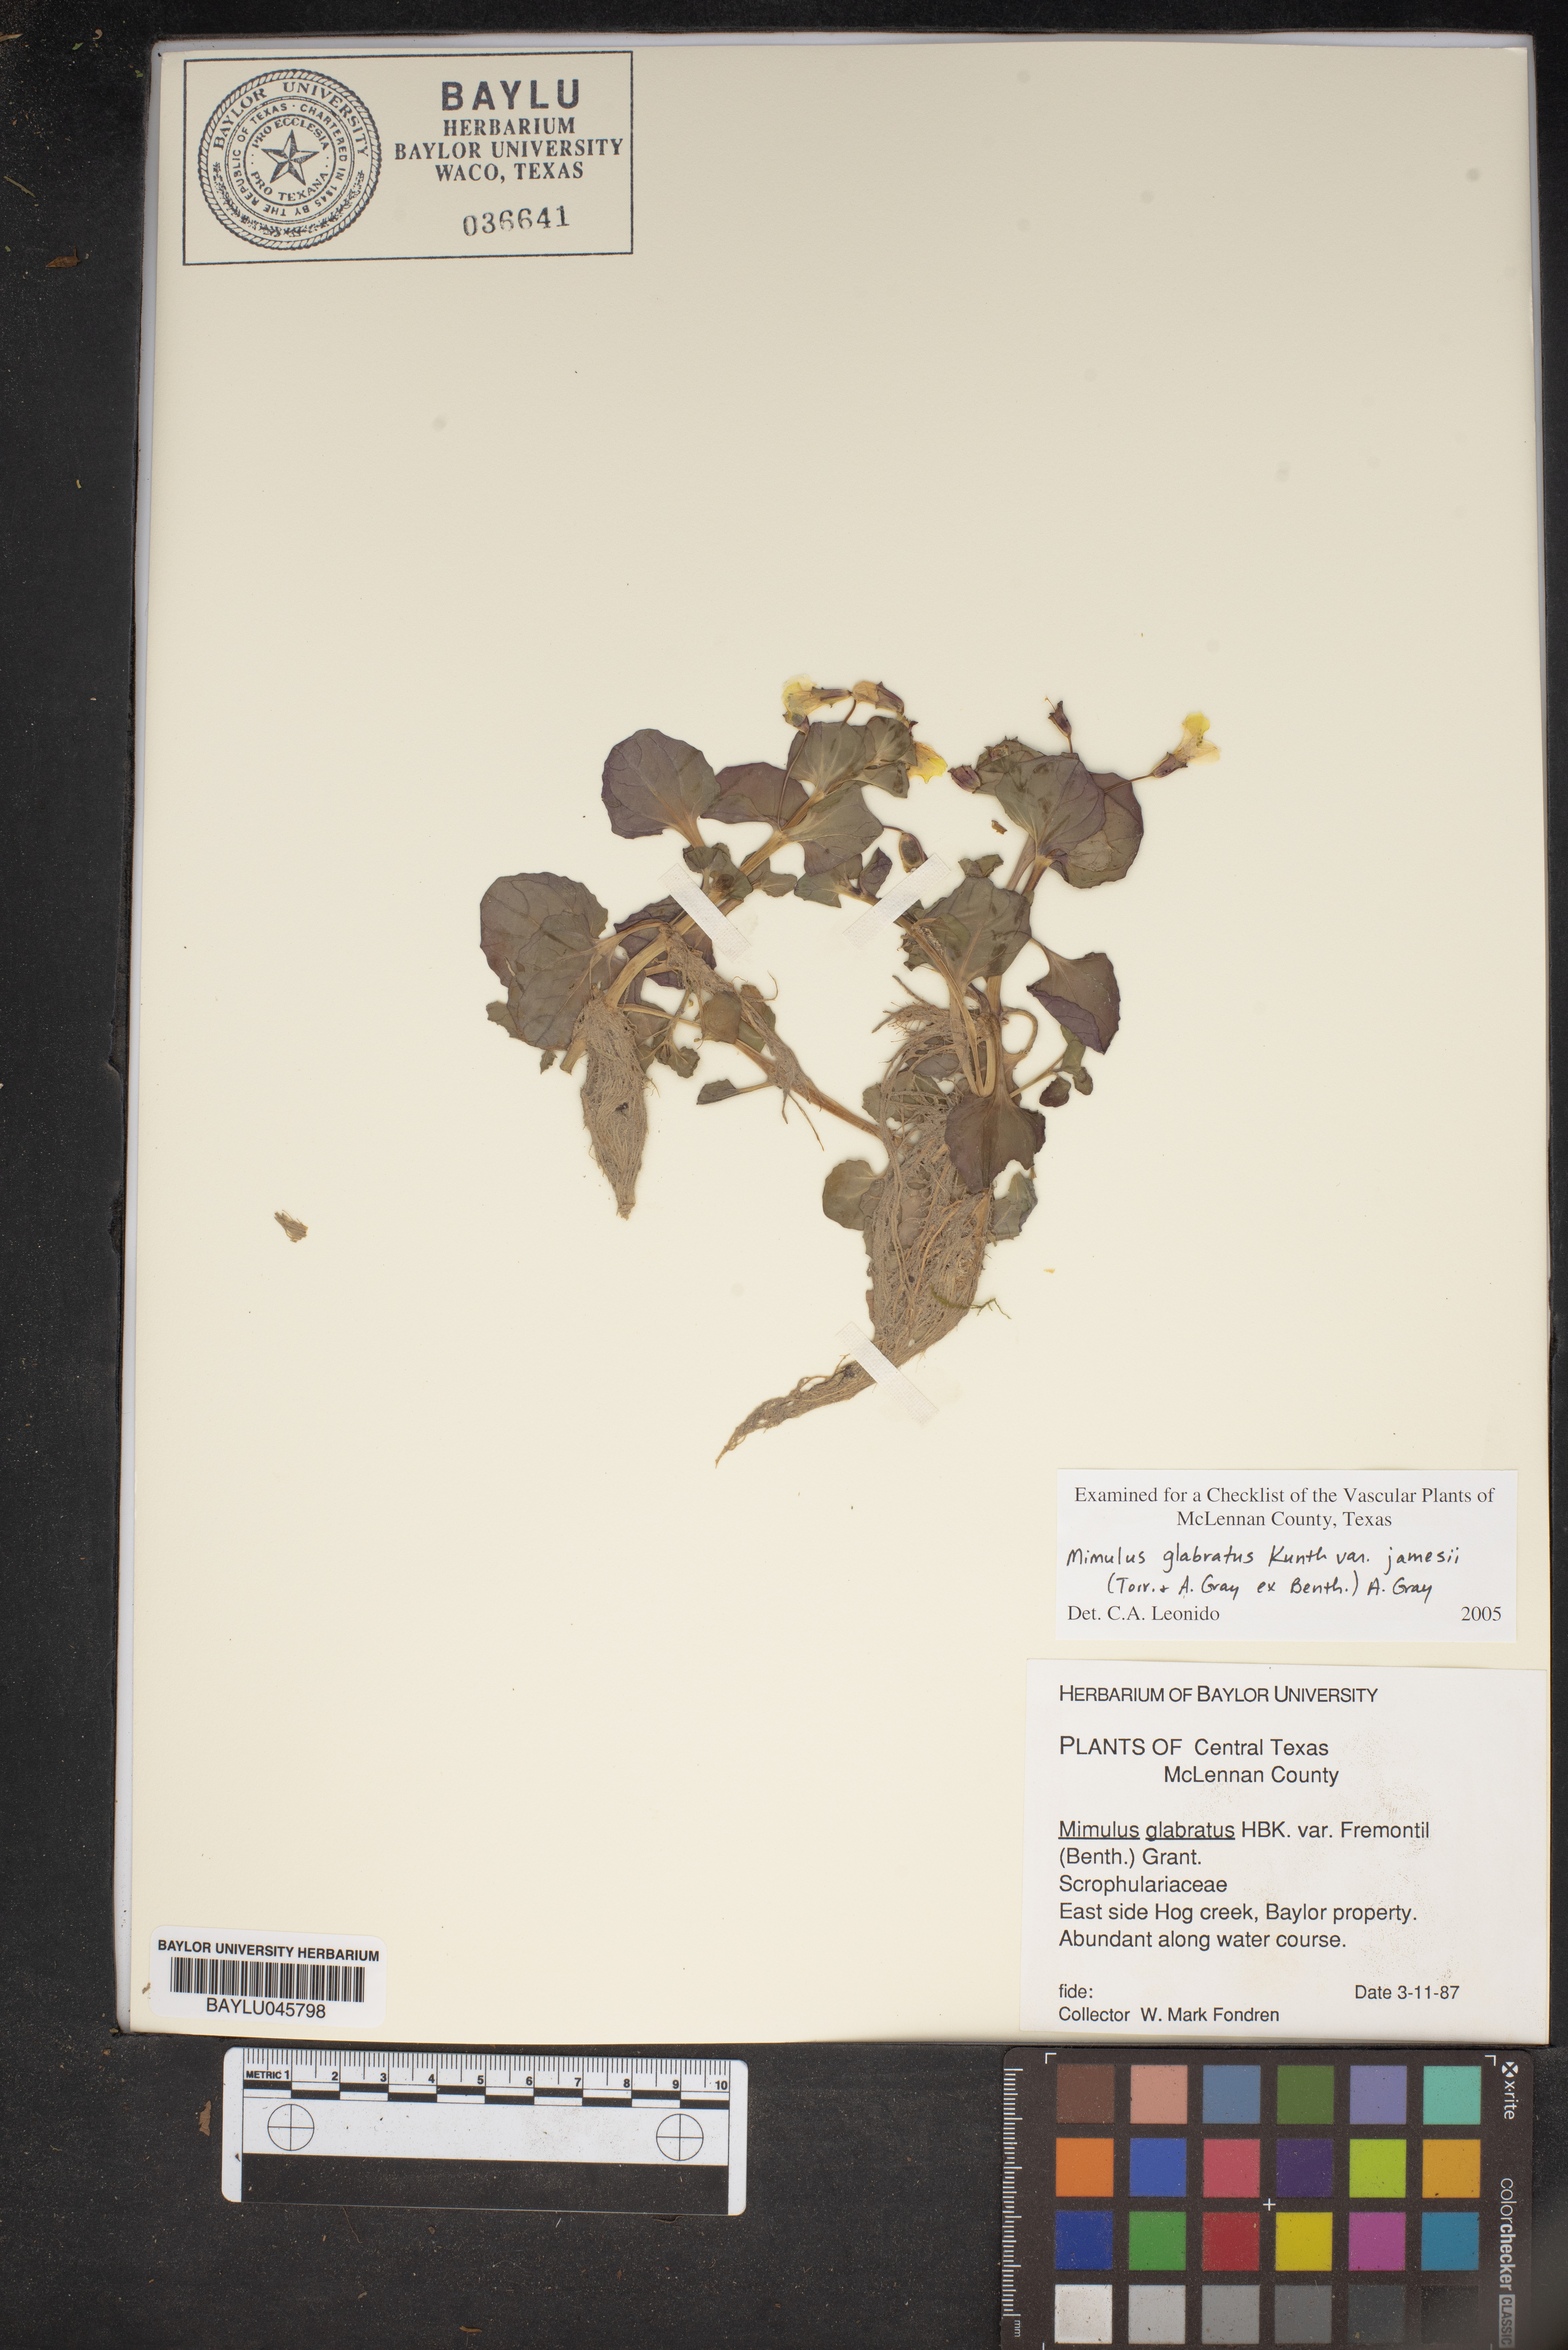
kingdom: Plantae
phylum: Tracheophyta
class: Magnoliopsida
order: Lamiales
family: Phrymaceae
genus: Erythranthe
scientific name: Erythranthe geyeri
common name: Geyer's monkeyflower
